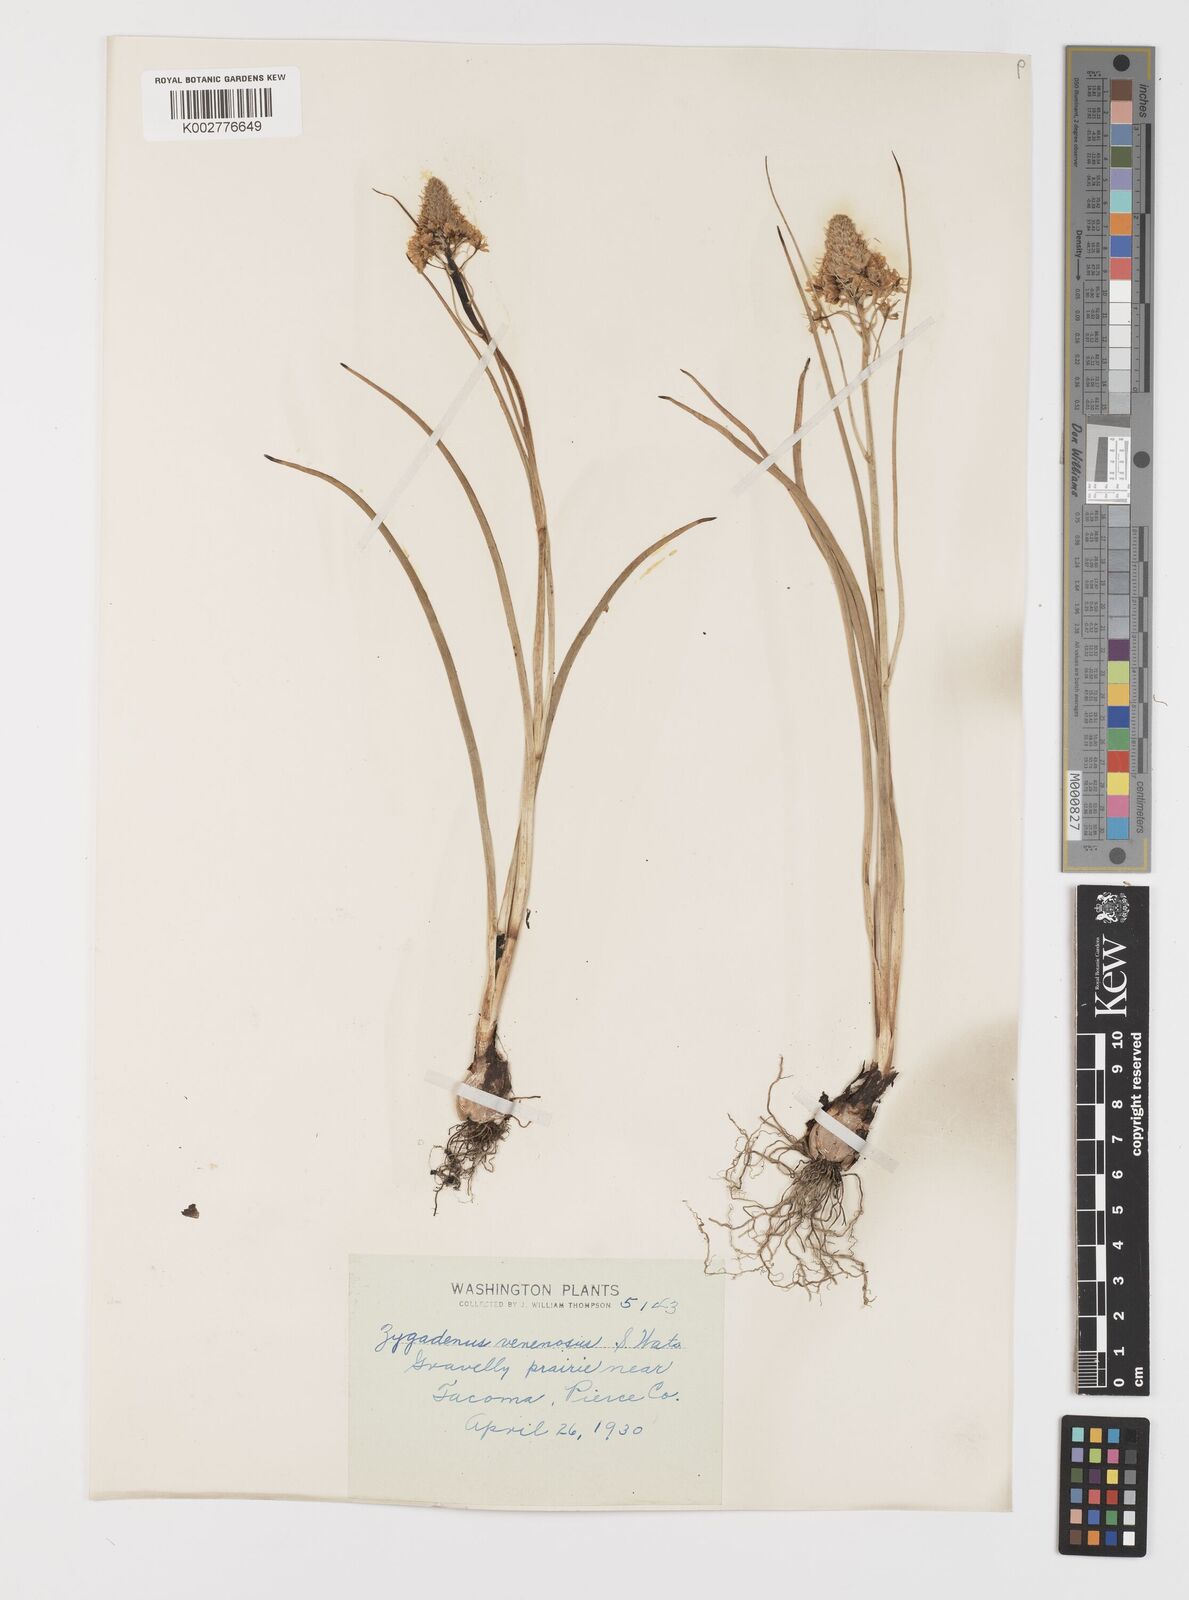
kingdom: Plantae
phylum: Tracheophyta
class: Liliopsida
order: Liliales
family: Melanthiaceae
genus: Toxicoscordion
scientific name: Toxicoscordion venenosum
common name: Meadow death camas
